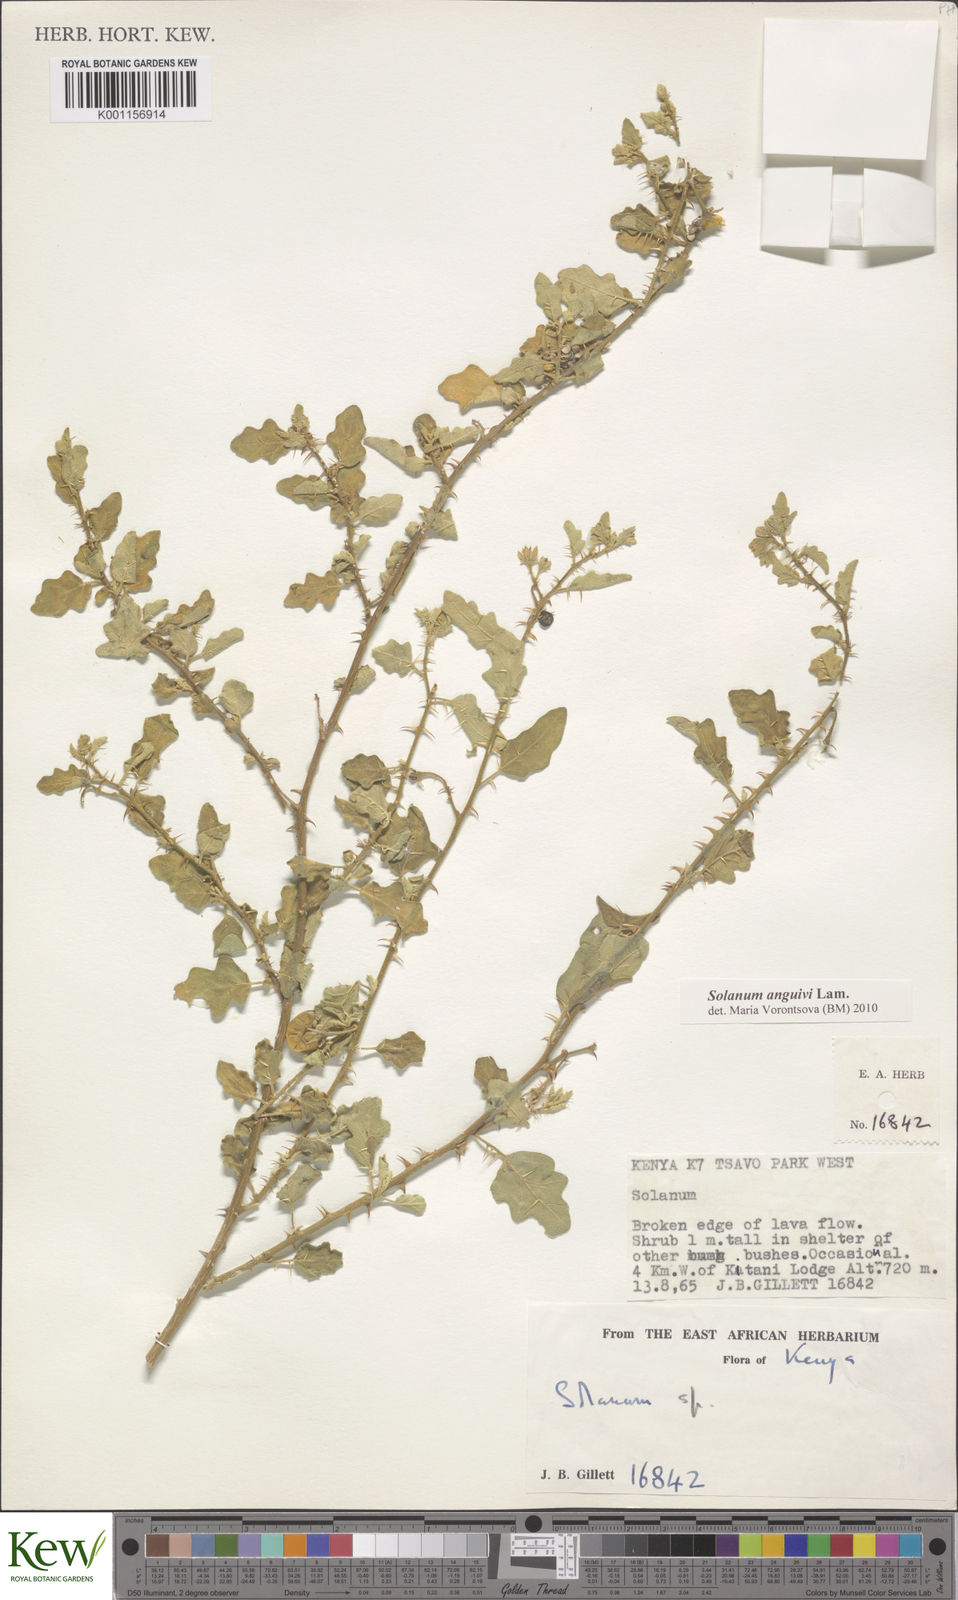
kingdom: Plantae
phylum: Tracheophyta
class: Magnoliopsida
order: Solanales
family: Solanaceae
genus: Solanum
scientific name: Solanum anguivi
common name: Forest bitterberry
